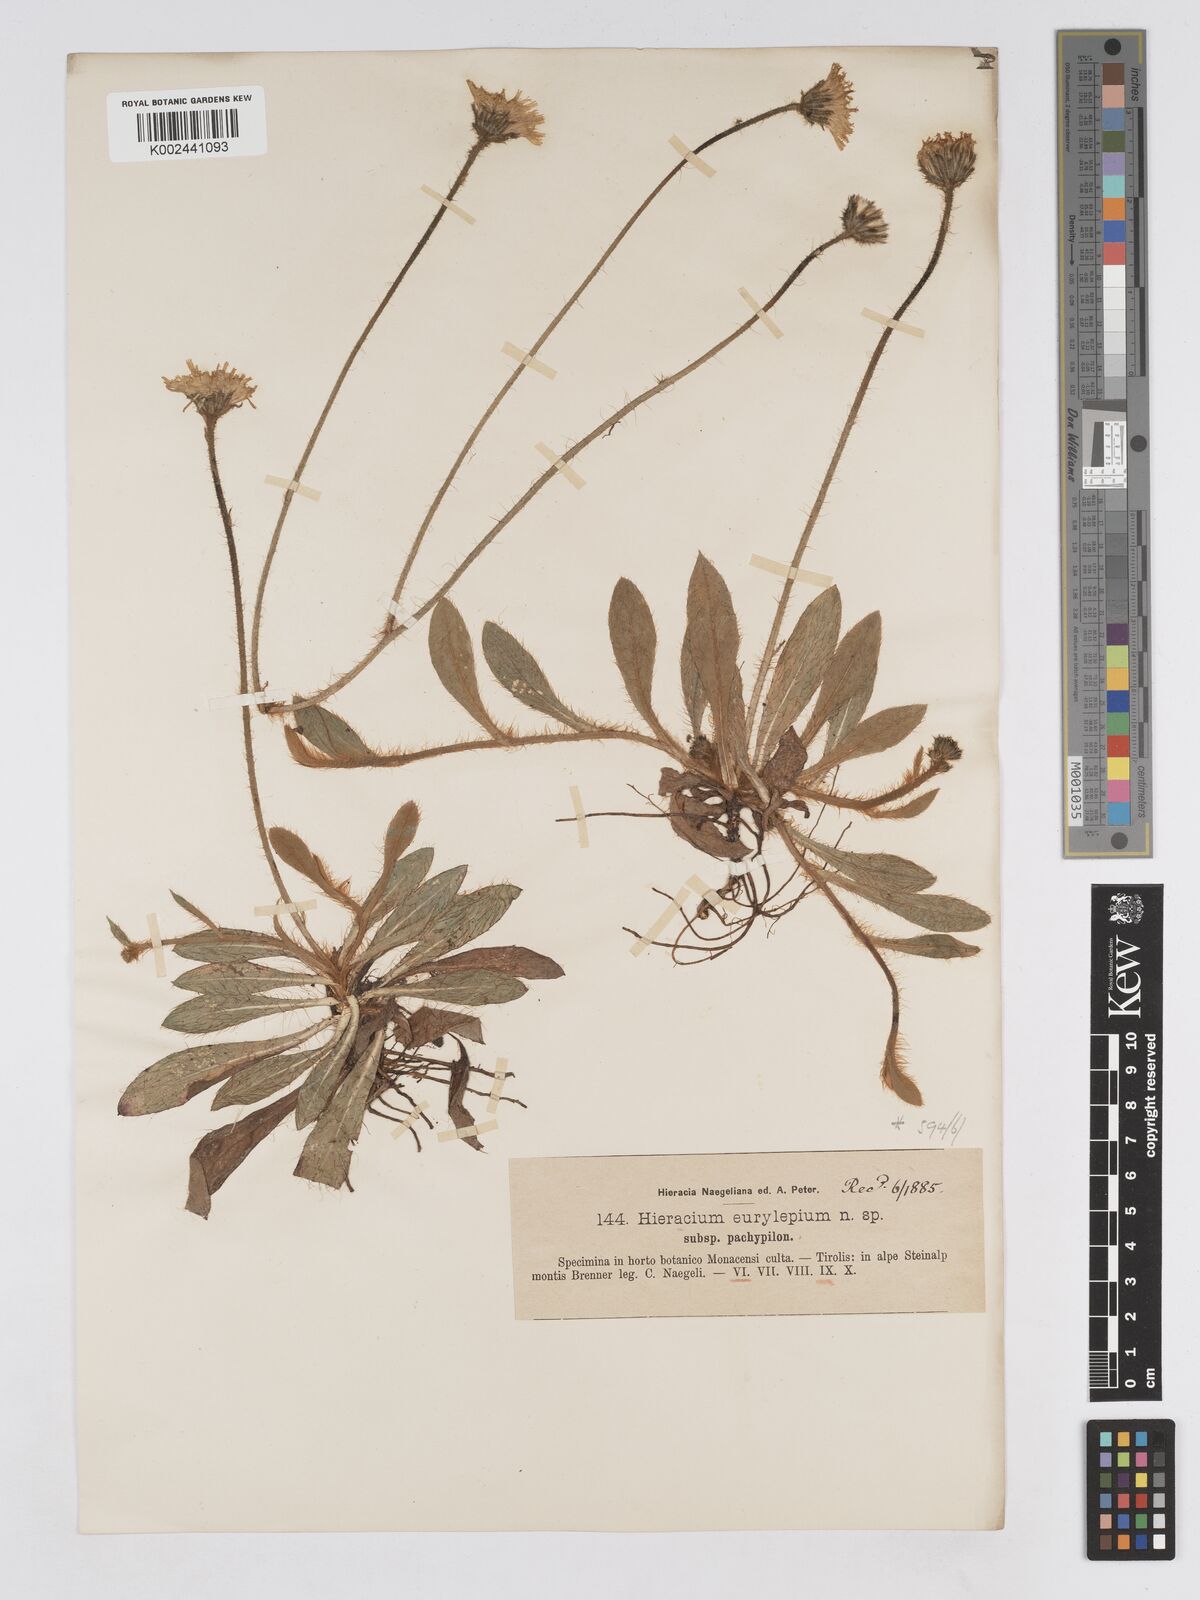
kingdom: Plantae
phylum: Tracheophyta
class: Magnoliopsida
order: Asterales
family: Asteraceae
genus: Pilosella
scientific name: Pilosella pachypila
